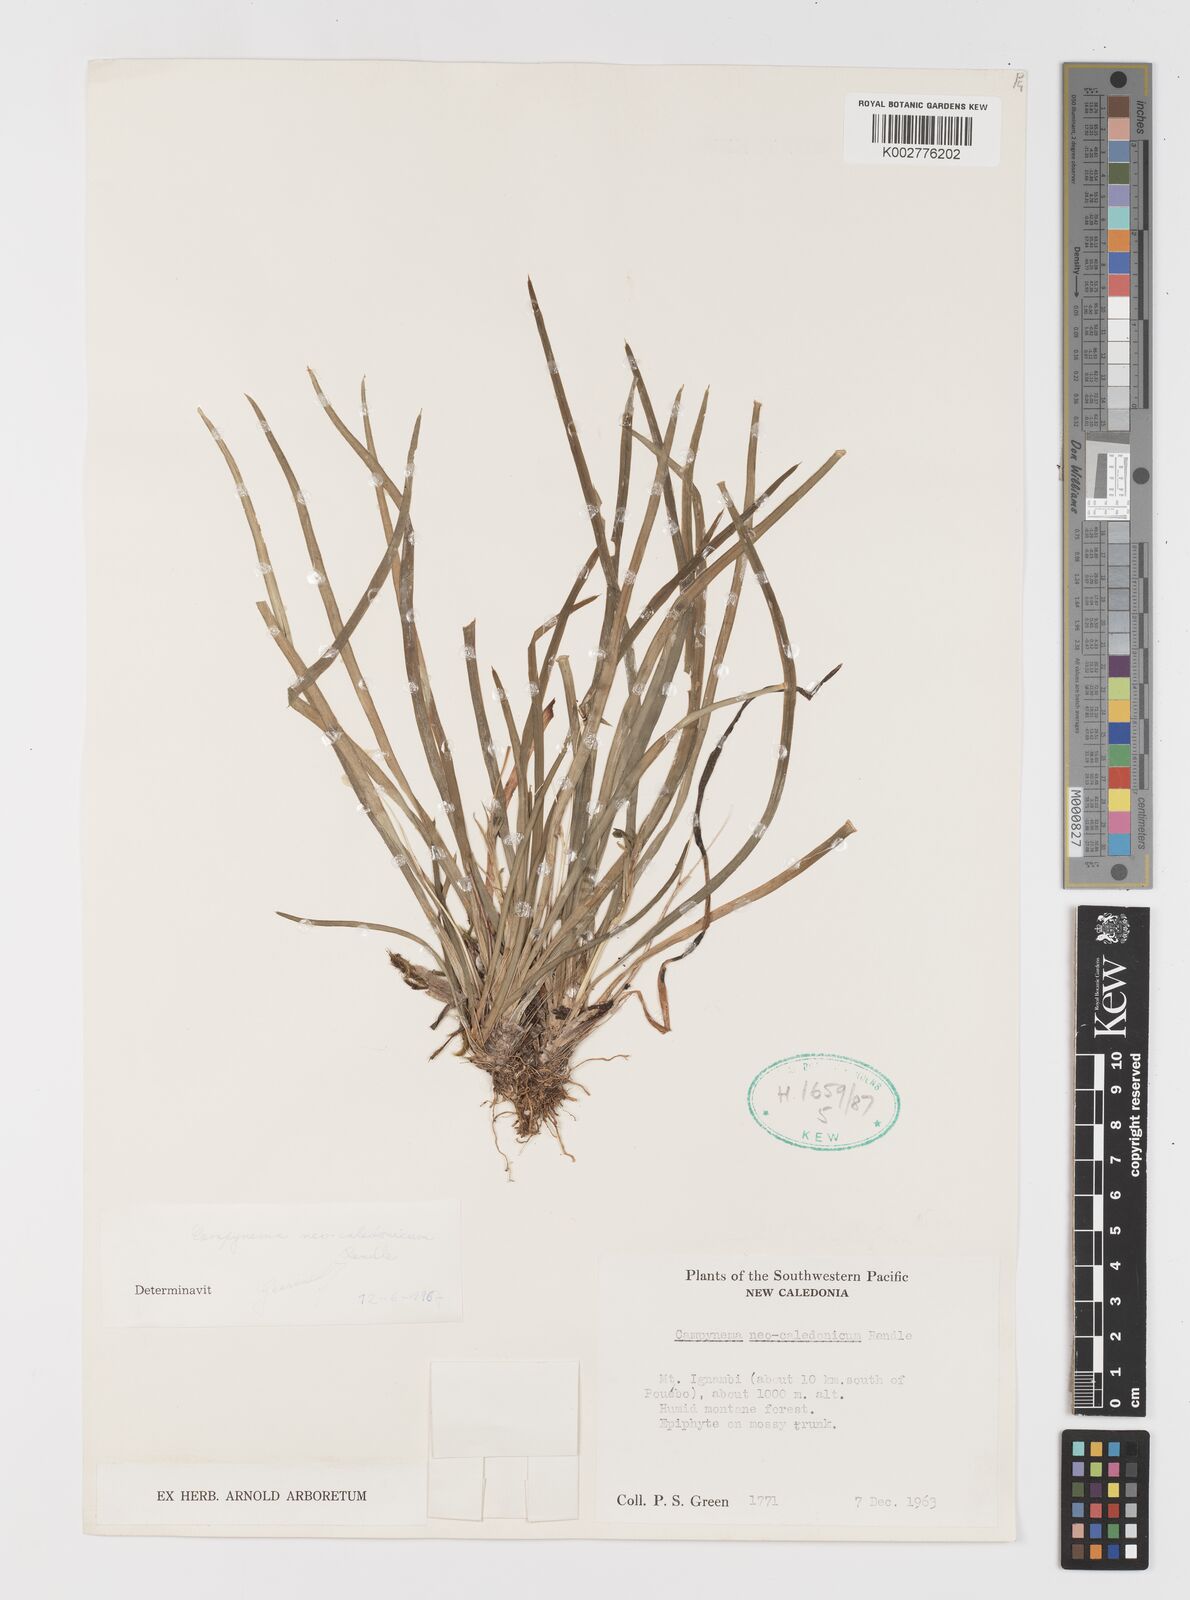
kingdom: Plantae
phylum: Tracheophyta
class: Liliopsida
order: Liliales
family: Campynemataceae
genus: Campynemanthe
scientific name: Campynemanthe neocaledonica
